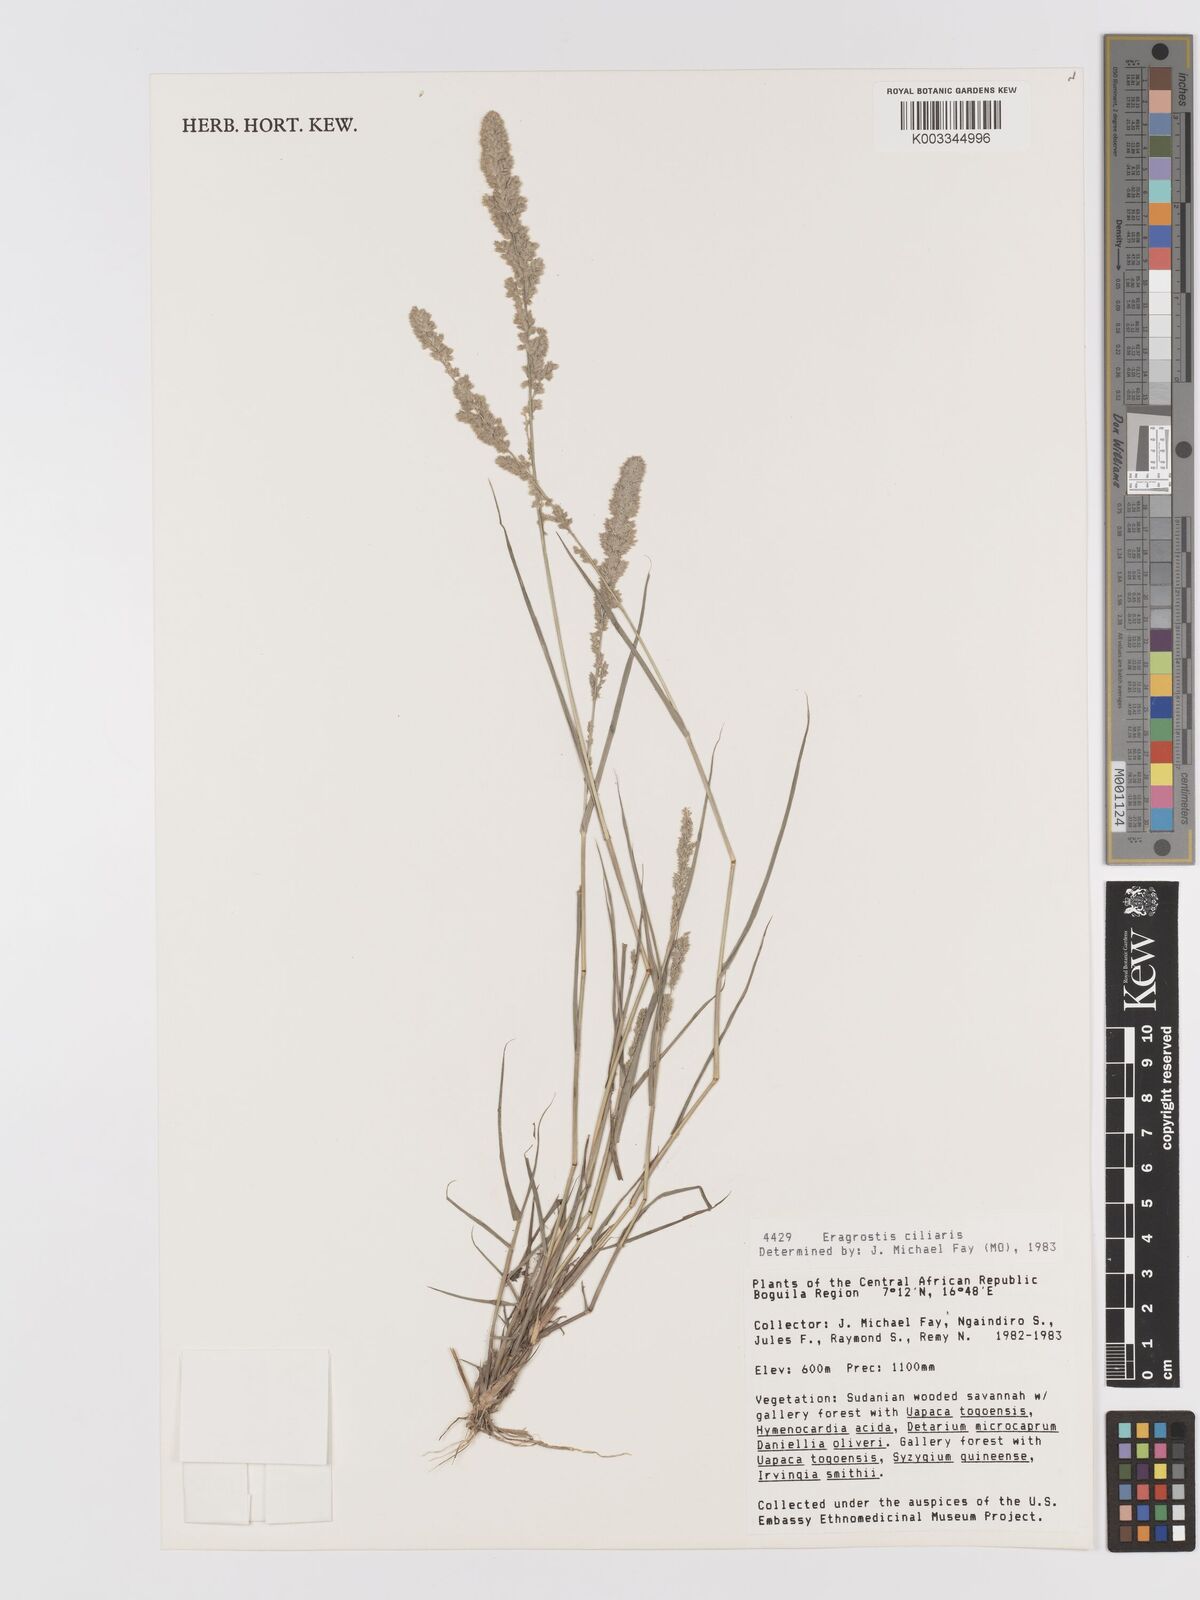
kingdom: Plantae
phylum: Tracheophyta
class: Liliopsida
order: Poales
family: Poaceae
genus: Eragrostis
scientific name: Eragrostis ciliaris
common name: Gophertail lovegrass
